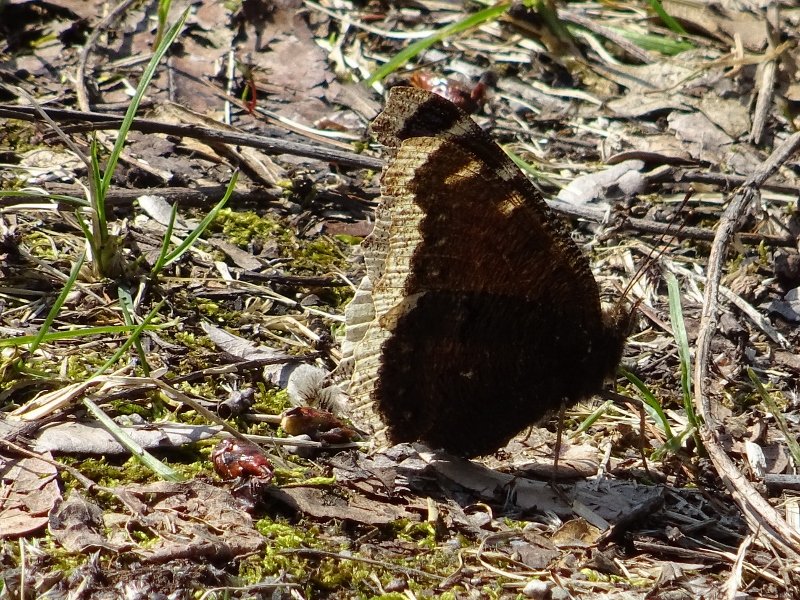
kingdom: Animalia
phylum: Arthropoda
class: Insecta
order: Lepidoptera
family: Nymphalidae
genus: Nymphalis
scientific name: Nymphalis antiopa
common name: Mourning Cloak
